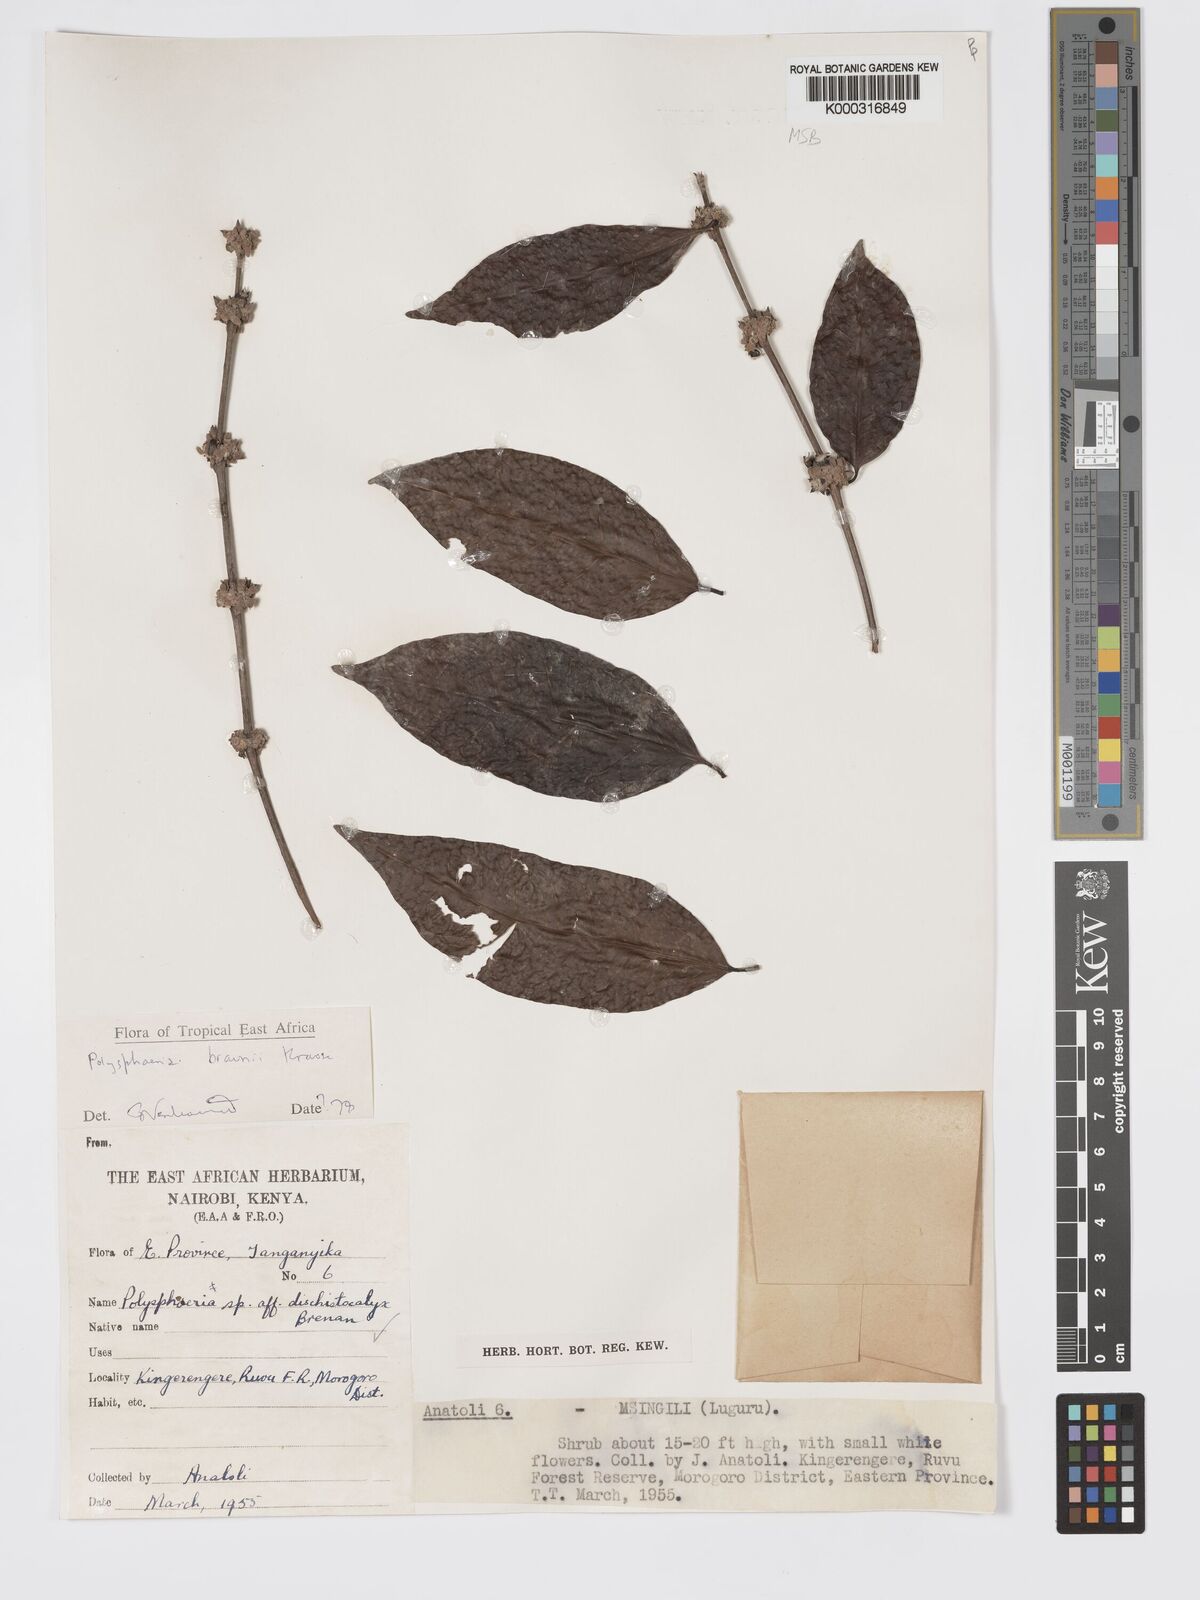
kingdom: Plantae
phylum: Tracheophyta
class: Magnoliopsida
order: Gentianales
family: Rubiaceae
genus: Polysphaeria
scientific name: Polysphaeria braunii
